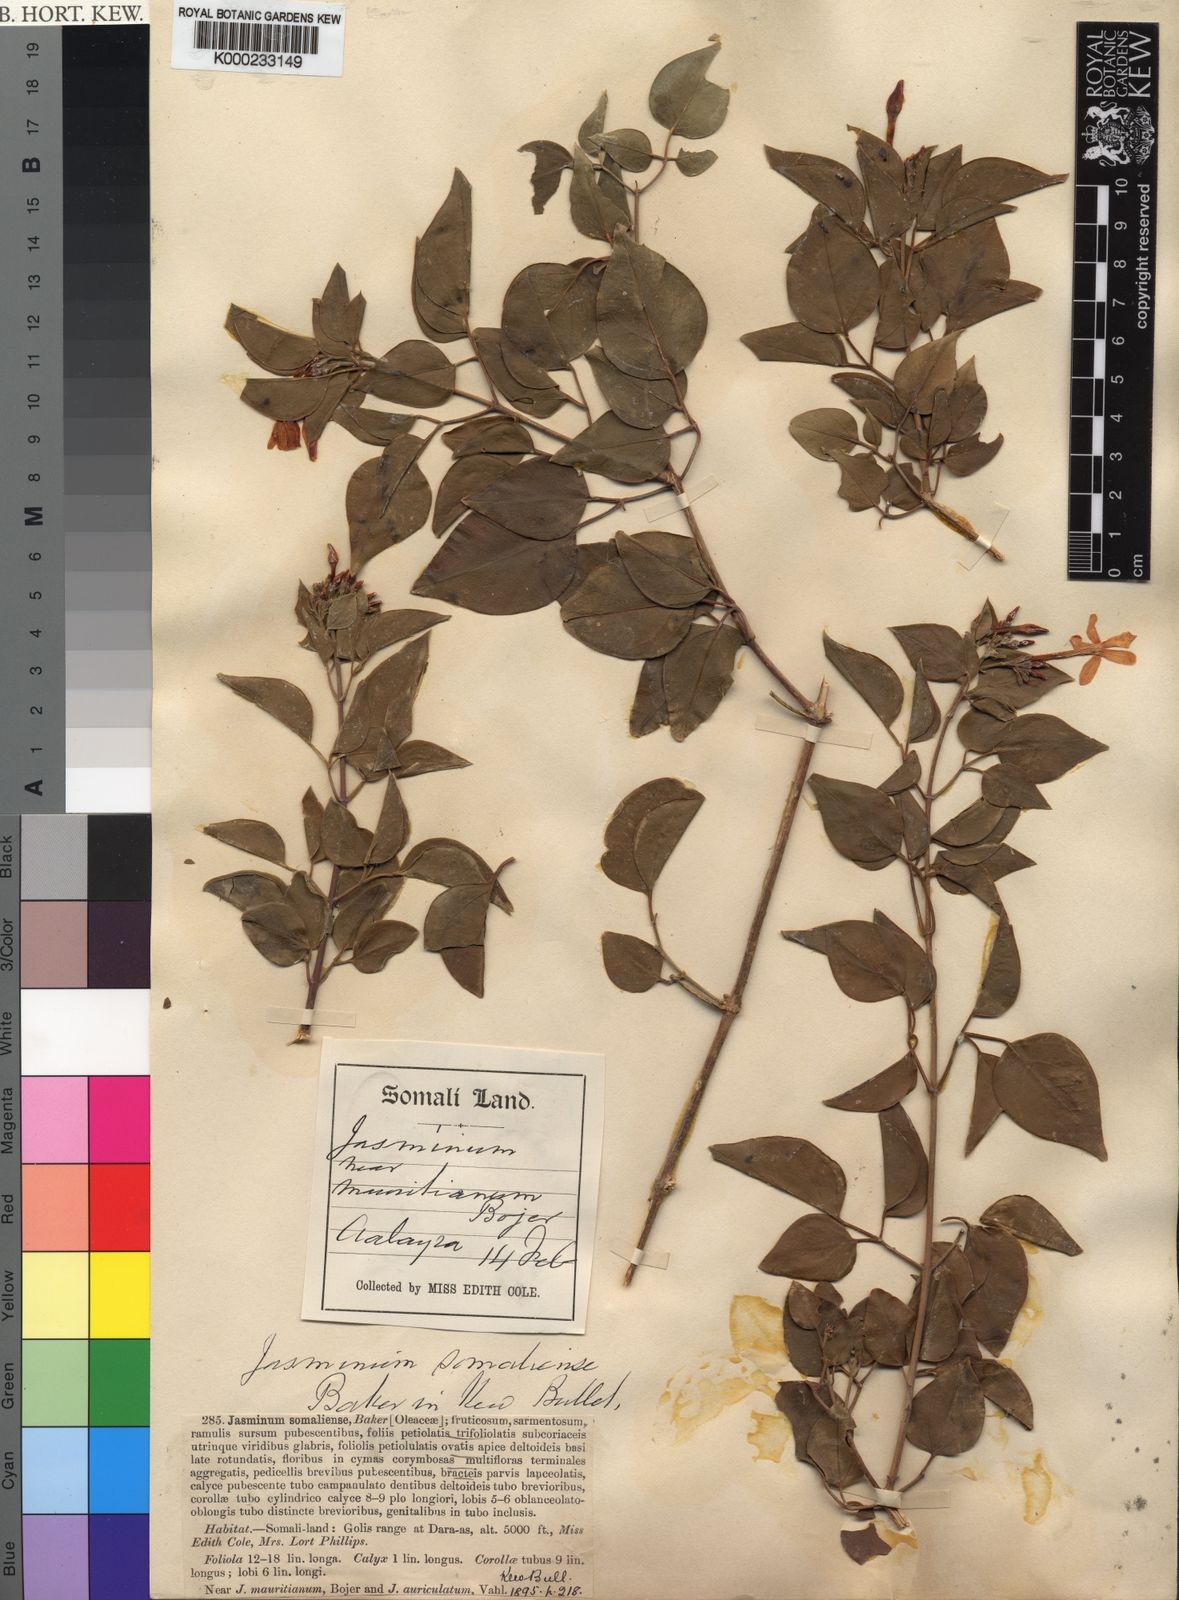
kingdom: Plantae
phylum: Tracheophyta
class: Magnoliopsida
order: Lamiales
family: Oleaceae
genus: Jasminum
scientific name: Jasminum fluminense
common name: Brazilian jasmine
